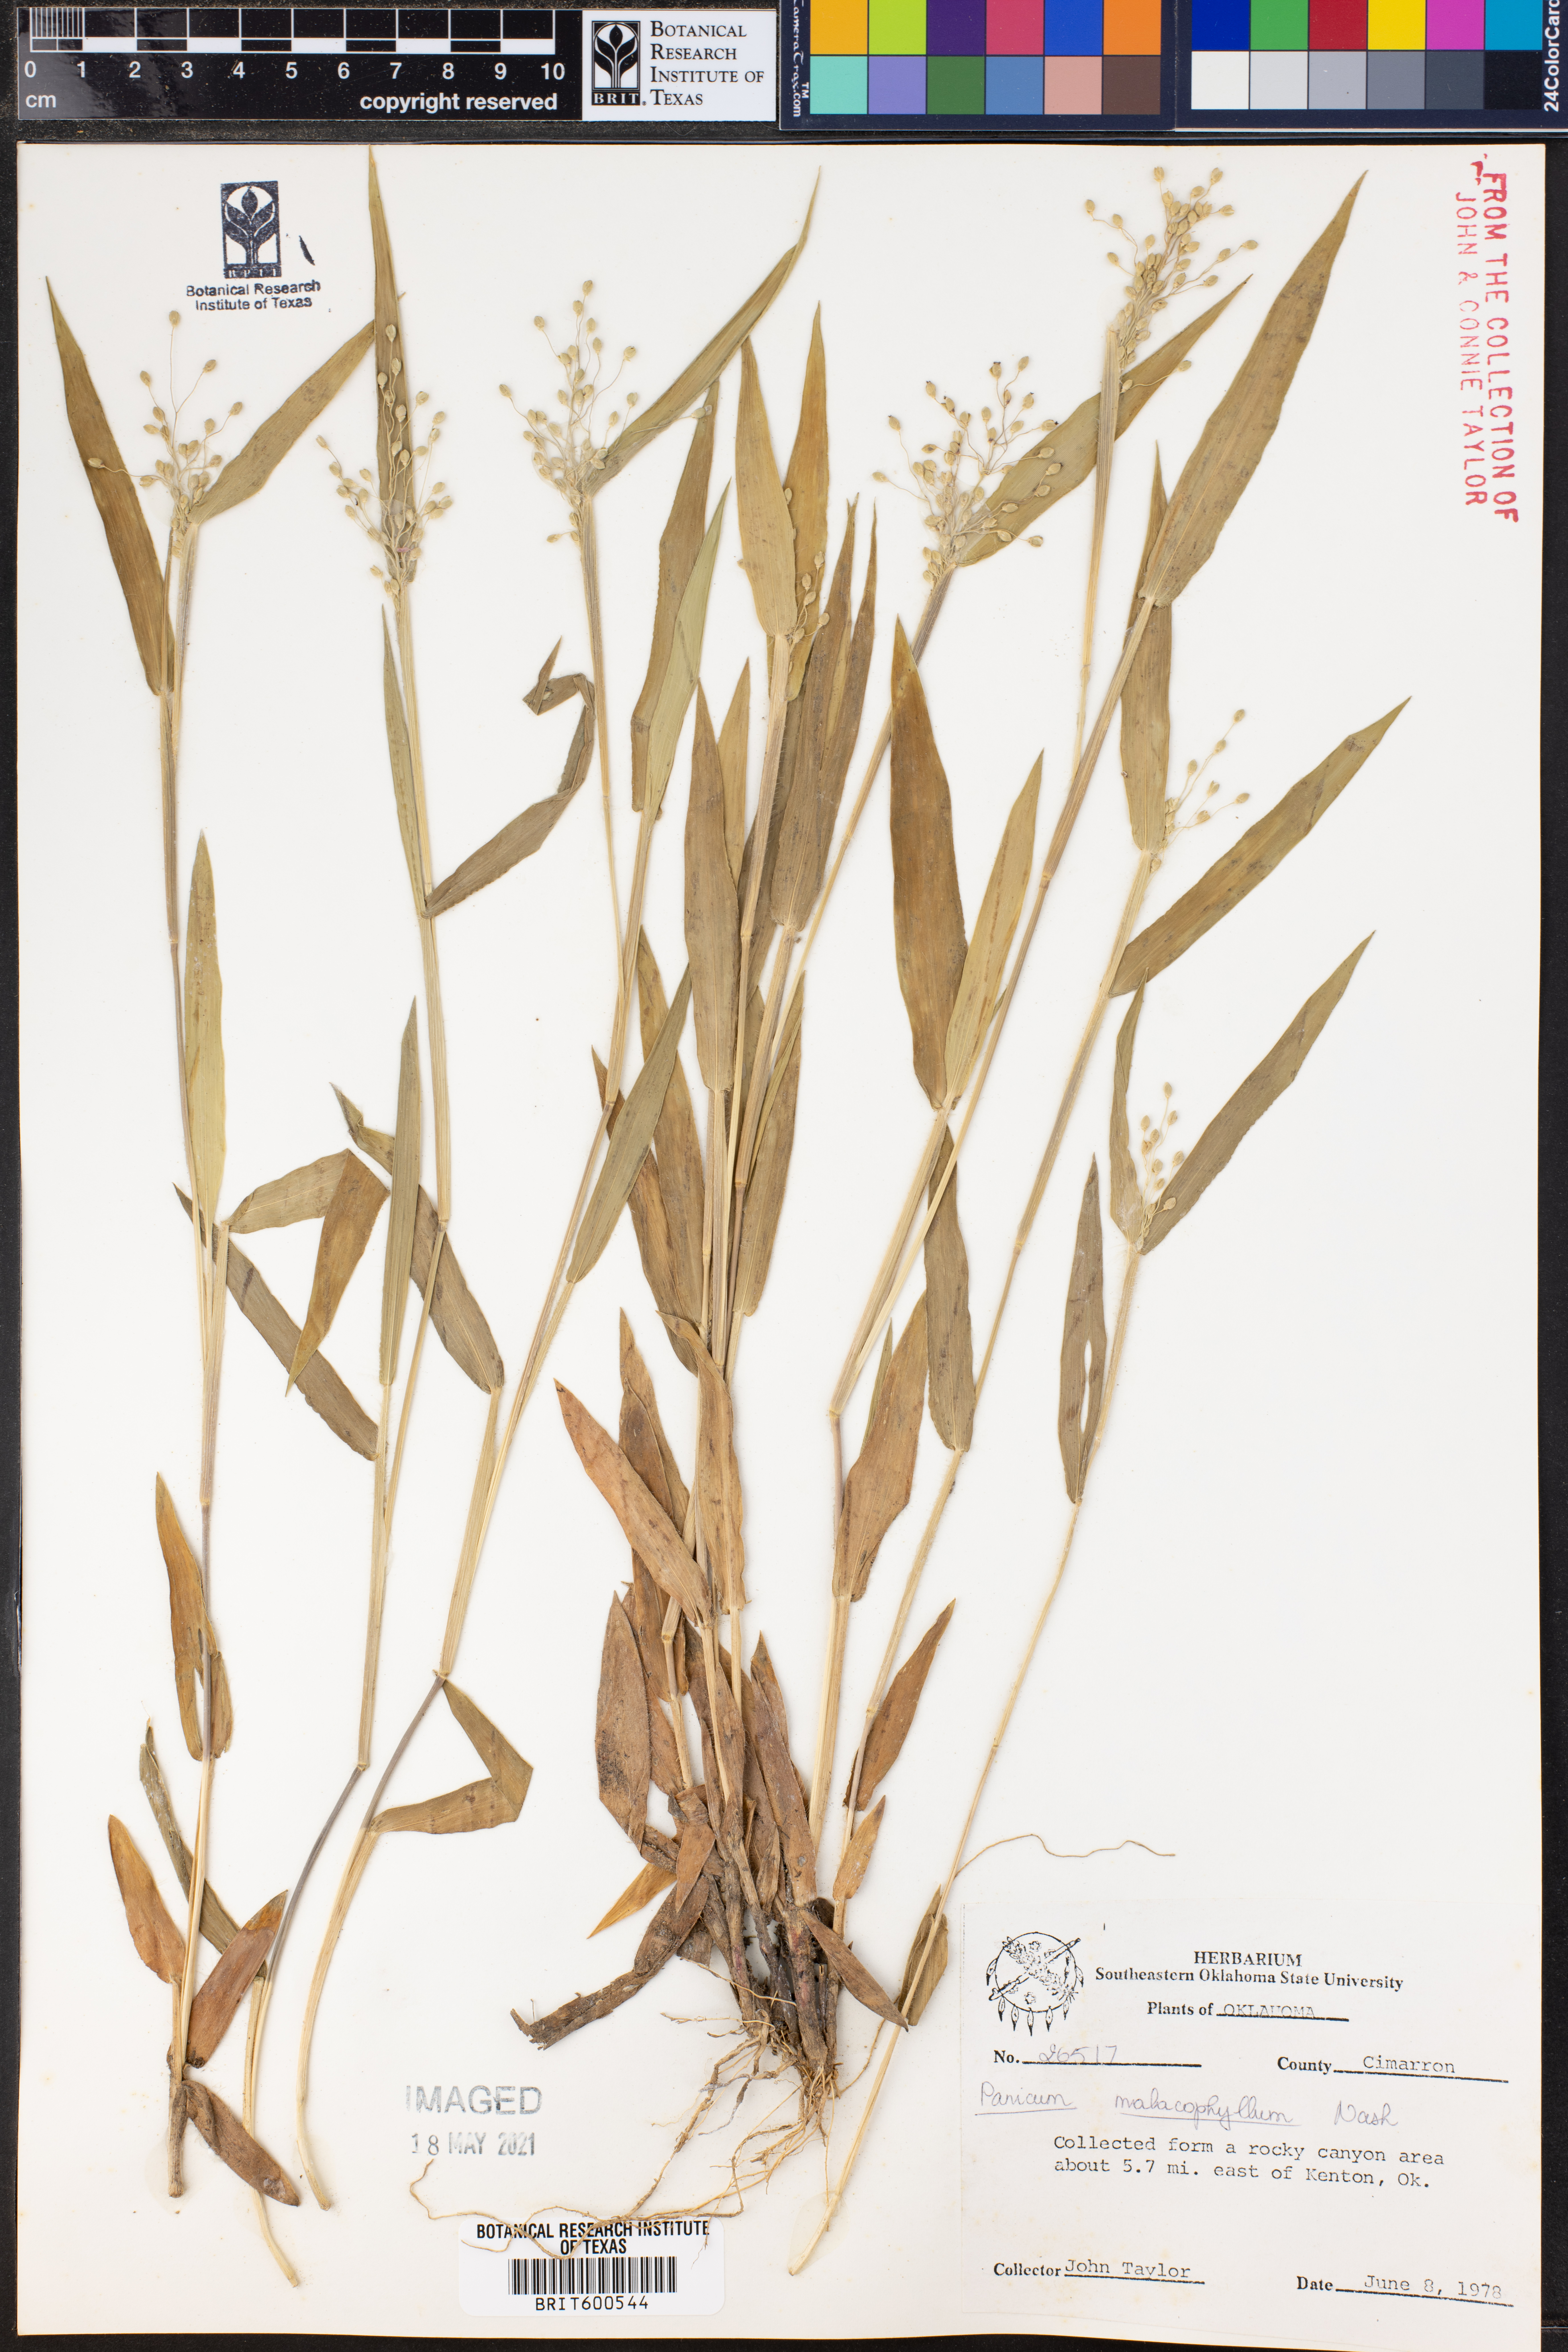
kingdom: Plantae
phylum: Tracheophyta
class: Liliopsida
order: Poales
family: Poaceae
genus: Dichanthelium
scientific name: Dichanthelium malacophyllum
